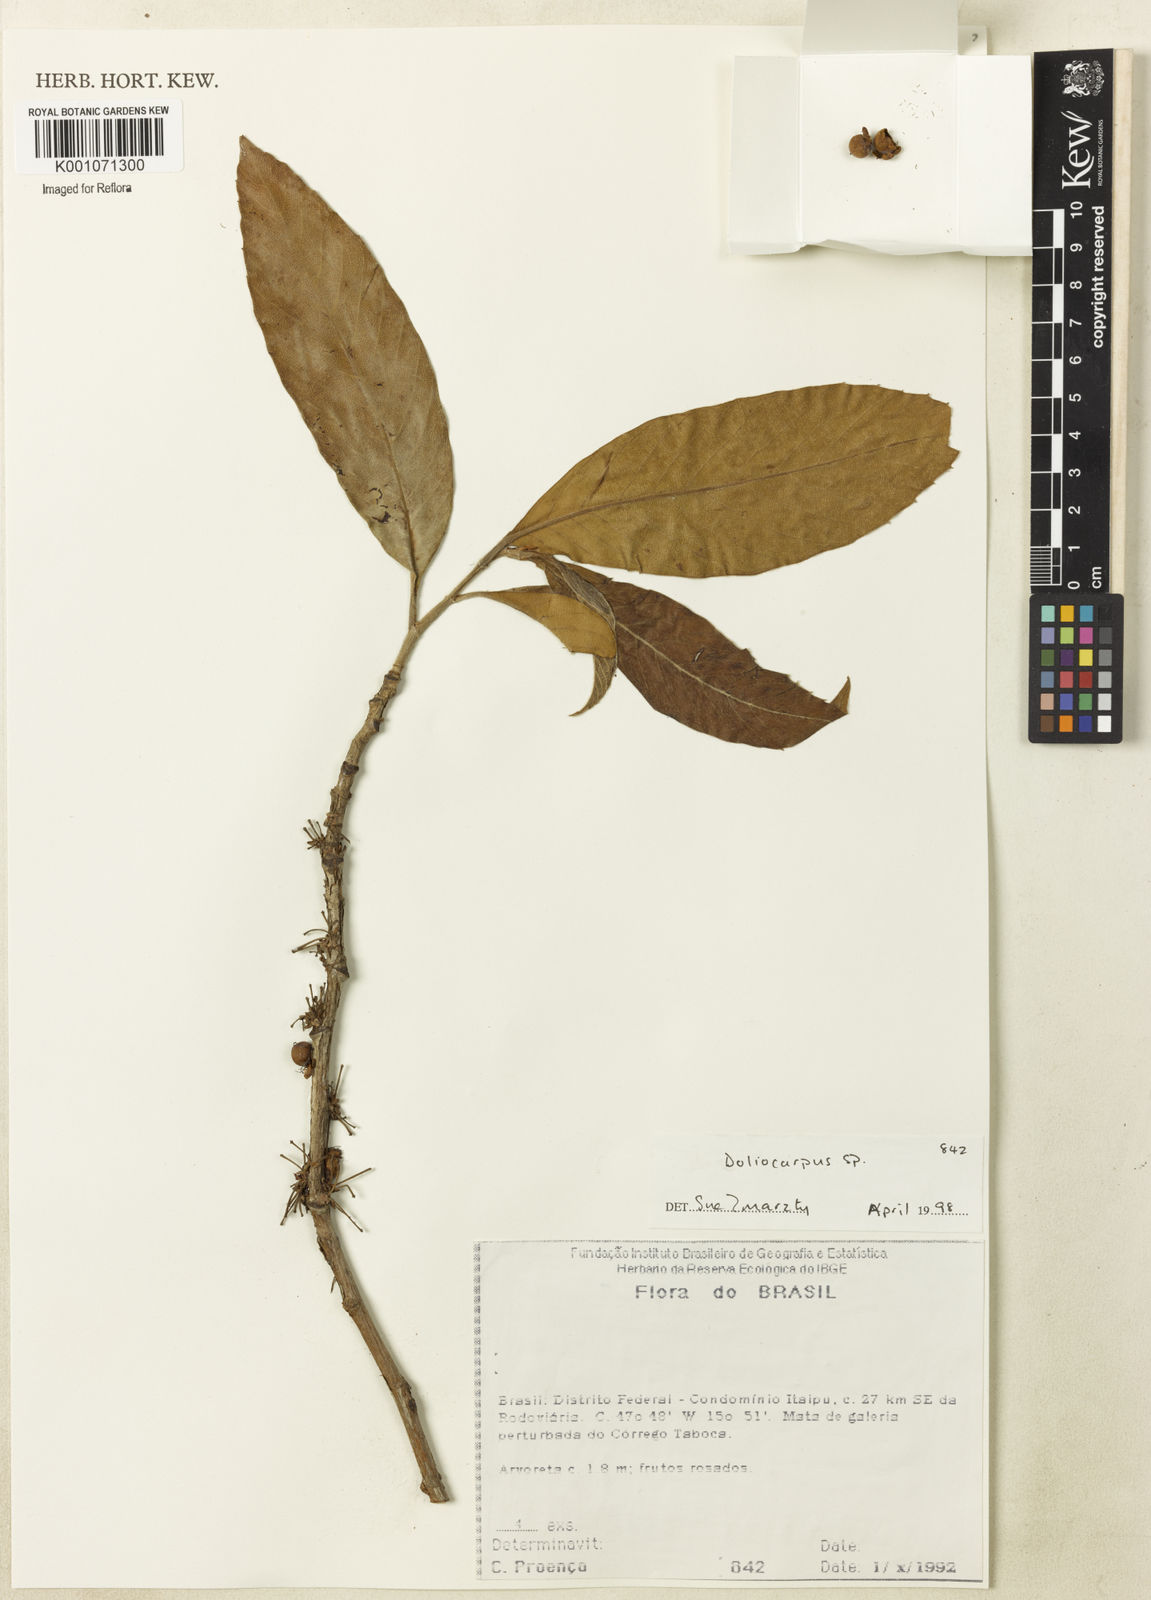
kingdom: Plantae
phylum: Tracheophyta
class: Magnoliopsida
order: Dilleniales
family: Dilleniaceae
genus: Doliocarpus
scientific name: Doliocarpus
